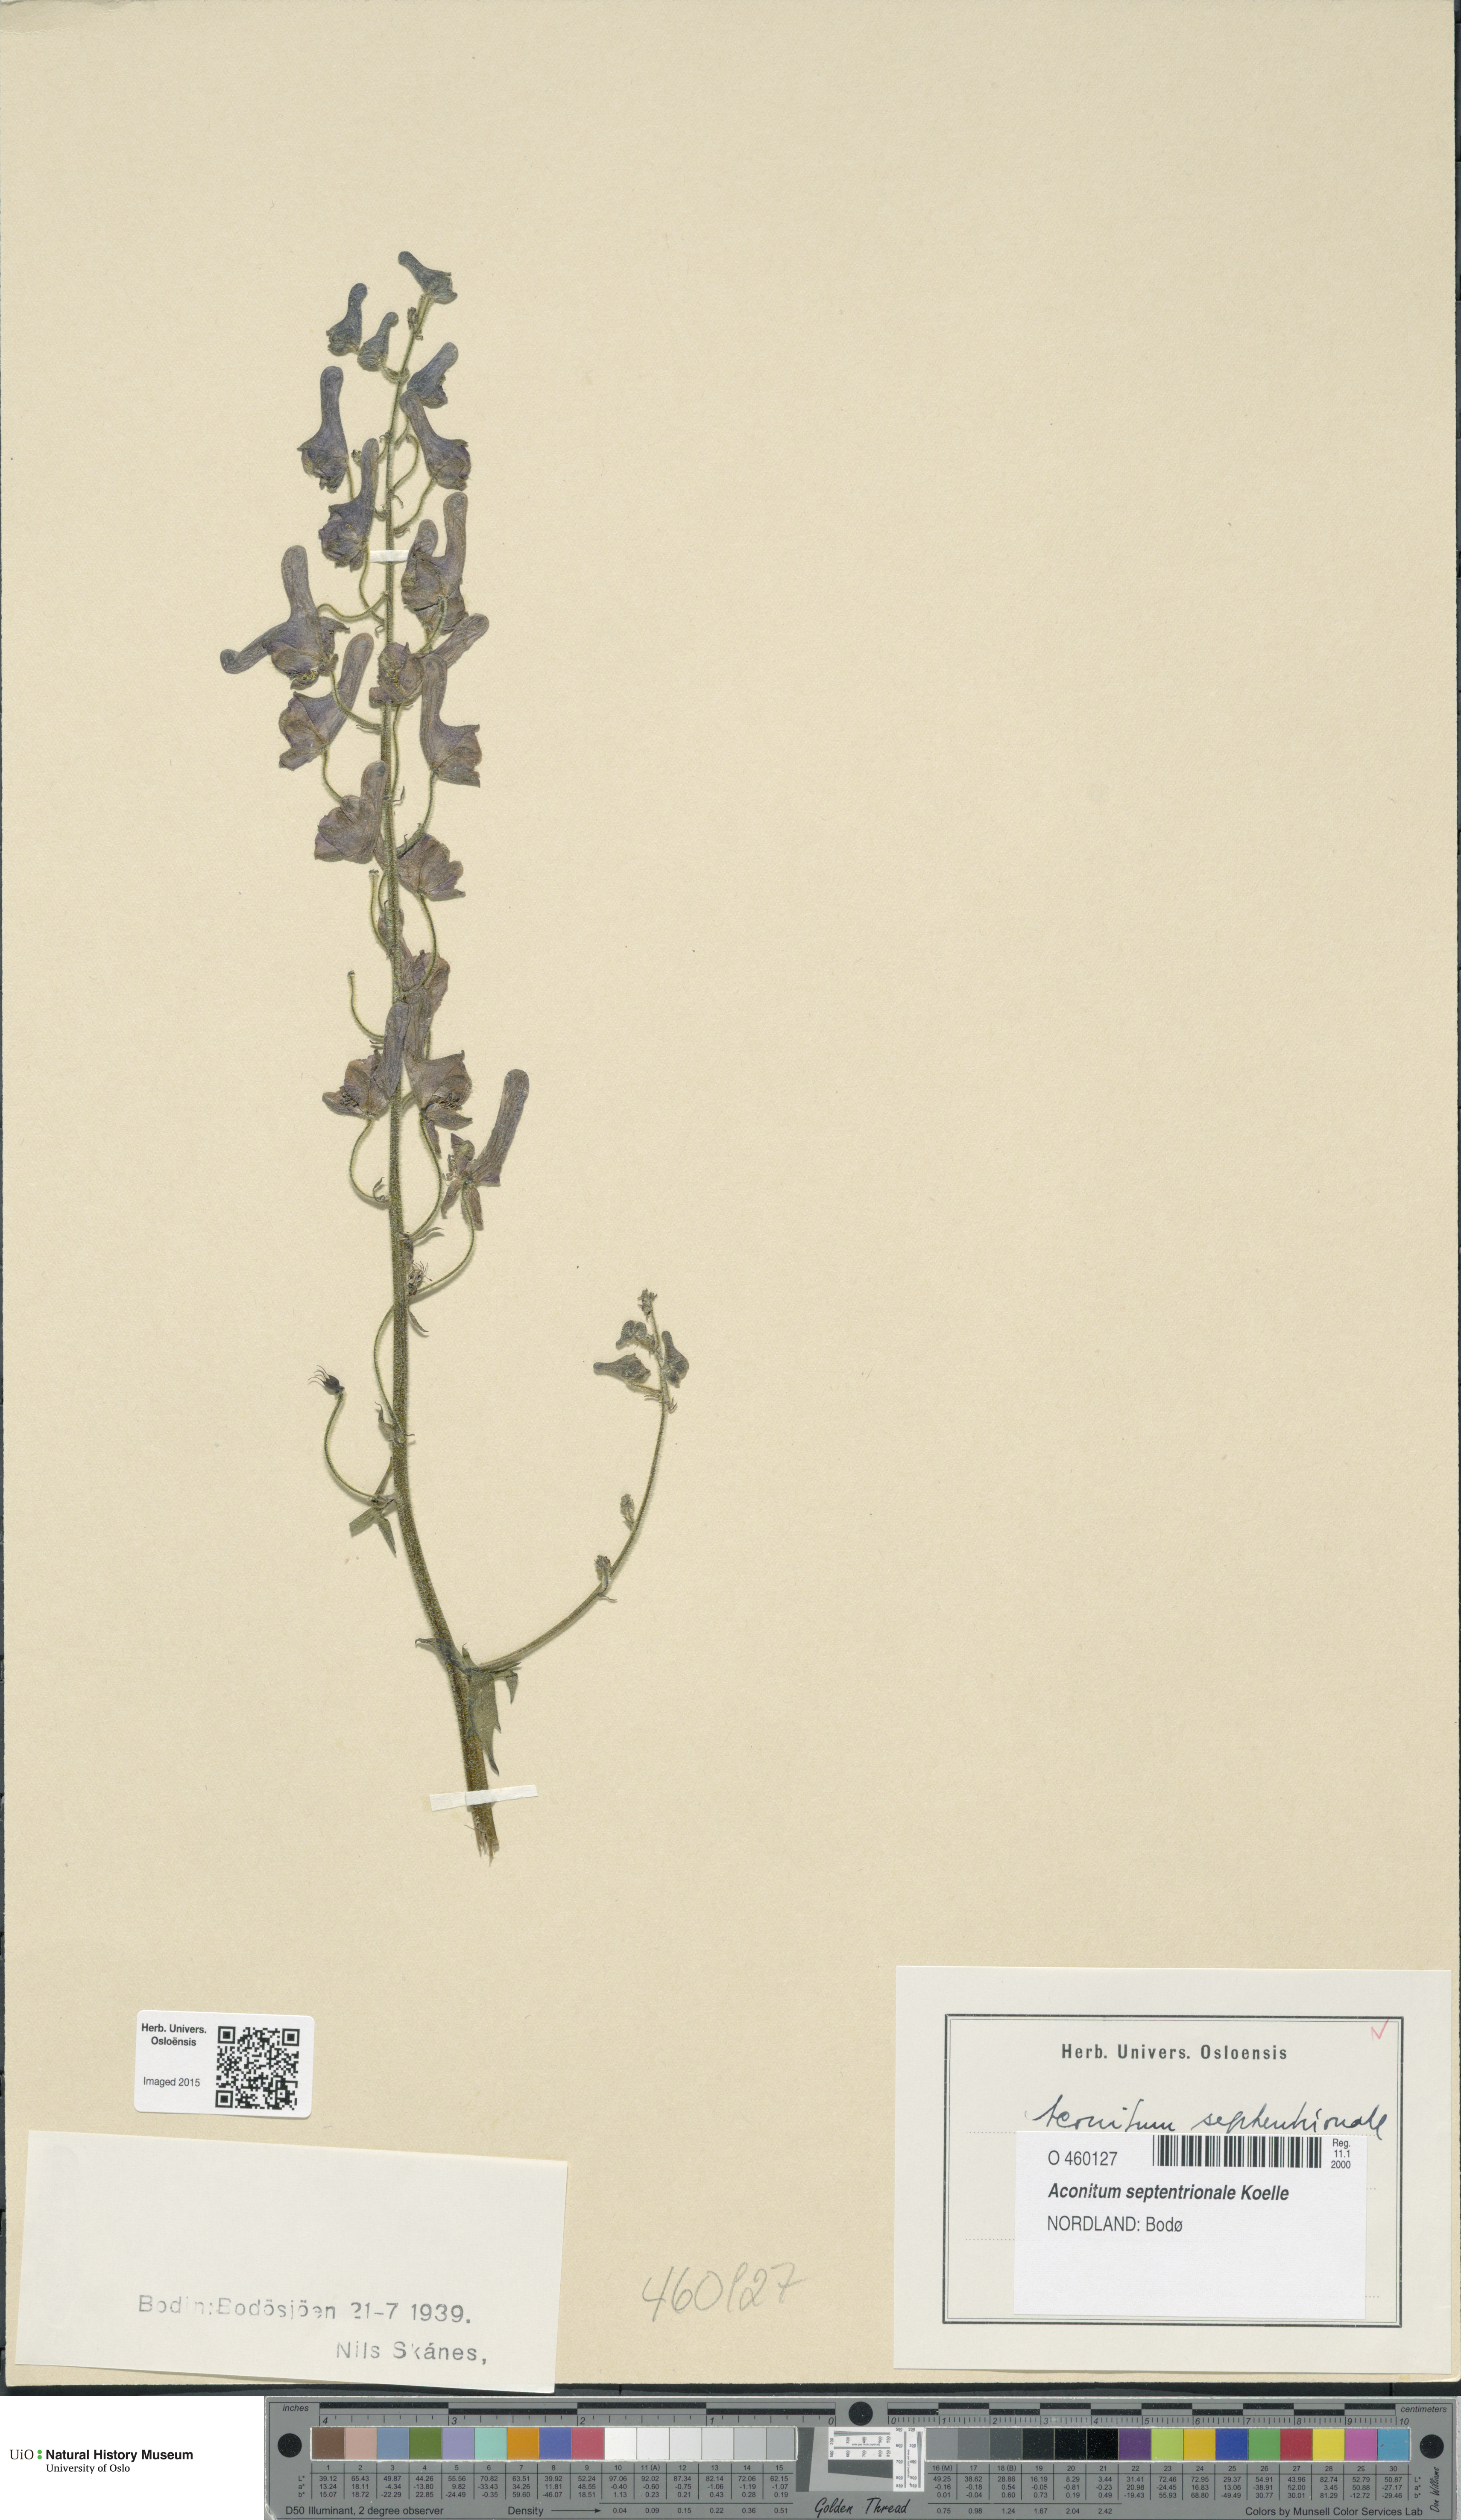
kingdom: Plantae
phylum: Tracheophyta
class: Magnoliopsida
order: Ranunculales
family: Ranunculaceae
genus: Aconitum
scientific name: Aconitum septentrionale
